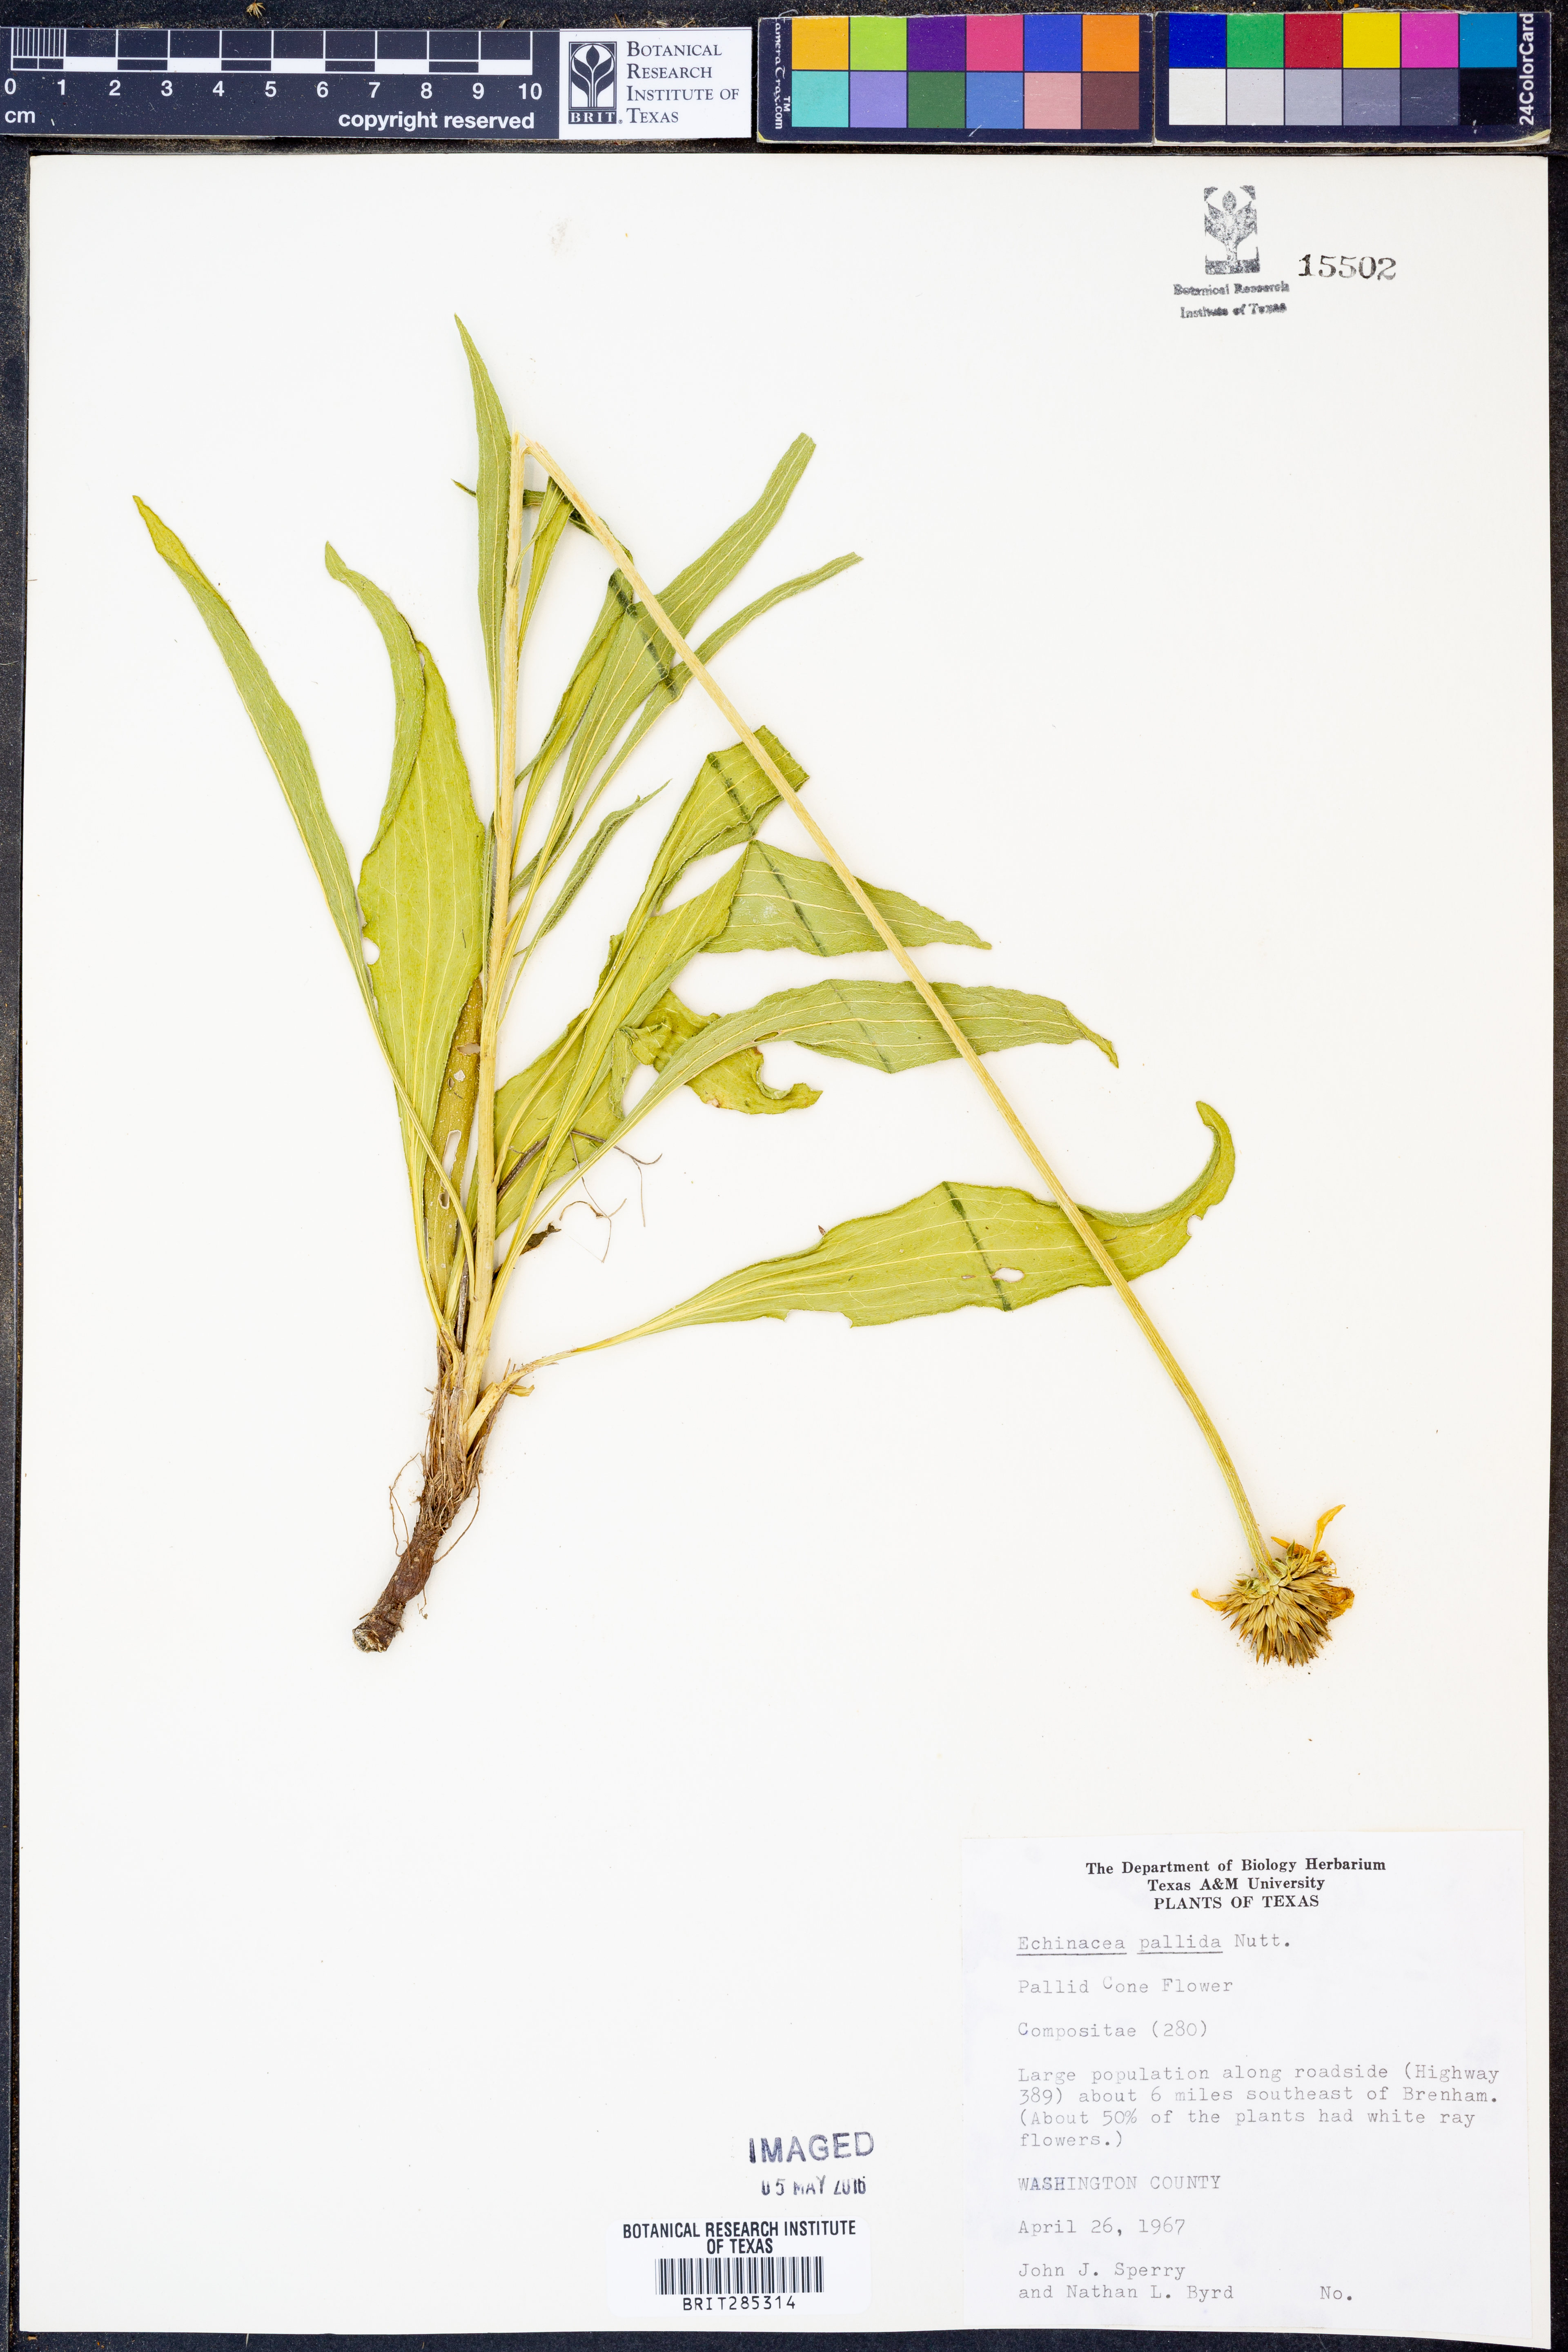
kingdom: Plantae
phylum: Tracheophyta
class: Magnoliopsida
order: Asterales
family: Asteraceae
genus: Echinacea
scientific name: Echinacea pallida
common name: Pale echinacea
